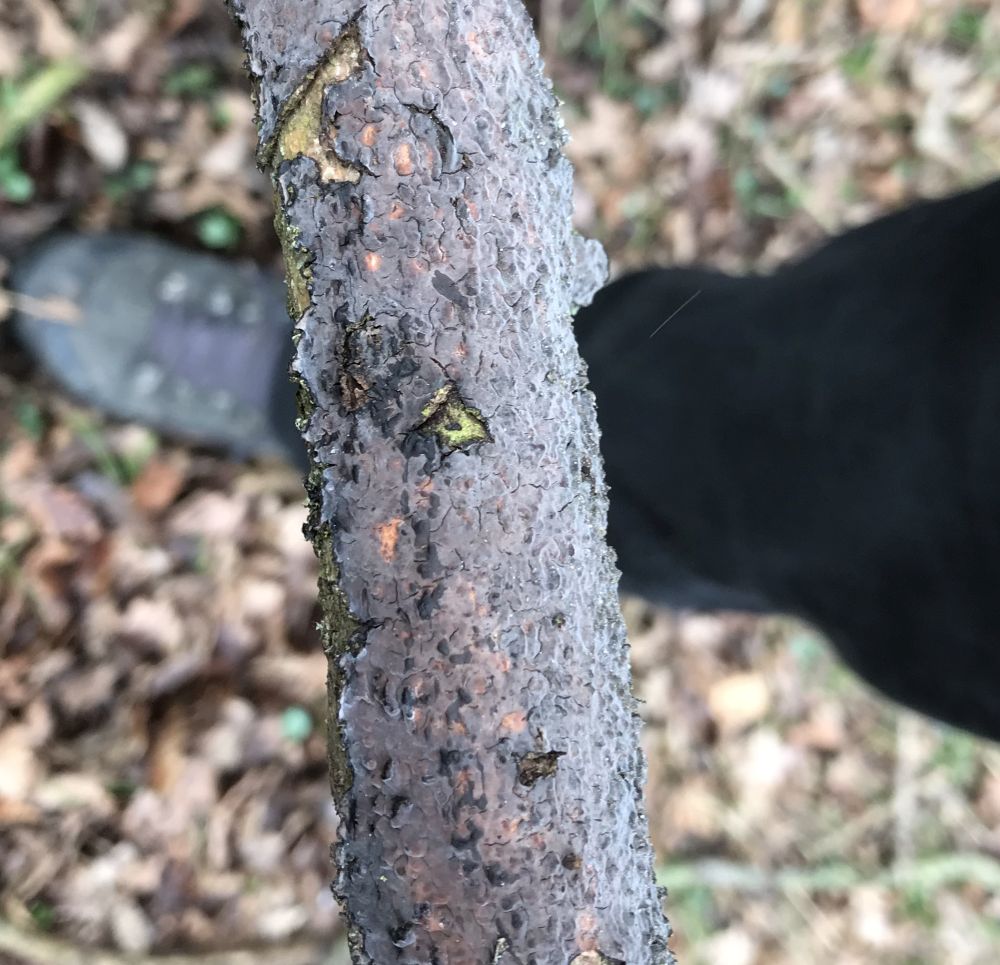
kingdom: Fungi
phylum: Basidiomycota
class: Agaricomycetes
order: Russulales
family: Peniophoraceae
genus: Peniophora
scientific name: Peniophora quercina
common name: ege-voksskind
